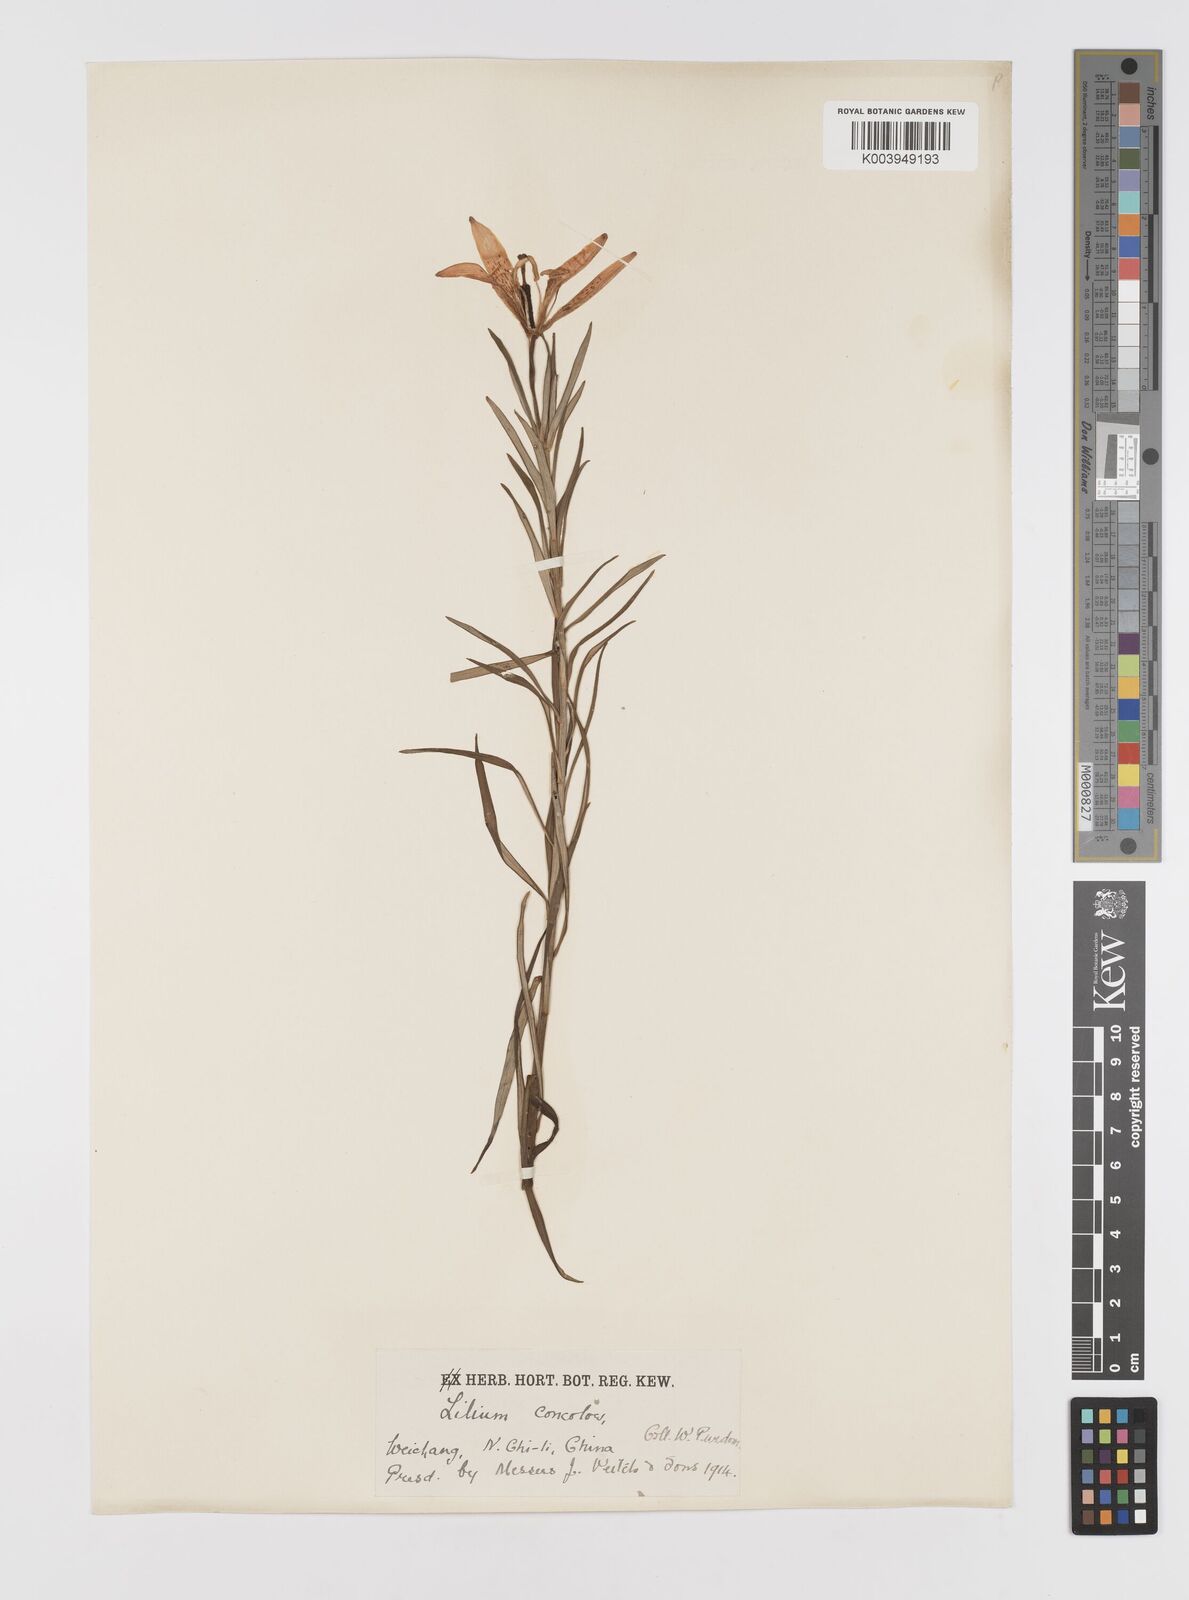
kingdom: Plantae
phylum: Tracheophyta
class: Liliopsida
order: Liliales
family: Liliaceae
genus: Lilium
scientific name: Lilium concolor
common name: Morning-star lily
